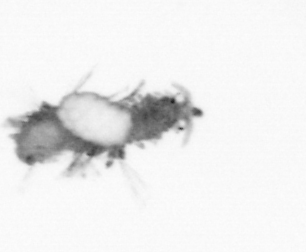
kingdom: Animalia
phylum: Annelida
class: Polychaeta
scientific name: Polychaeta
